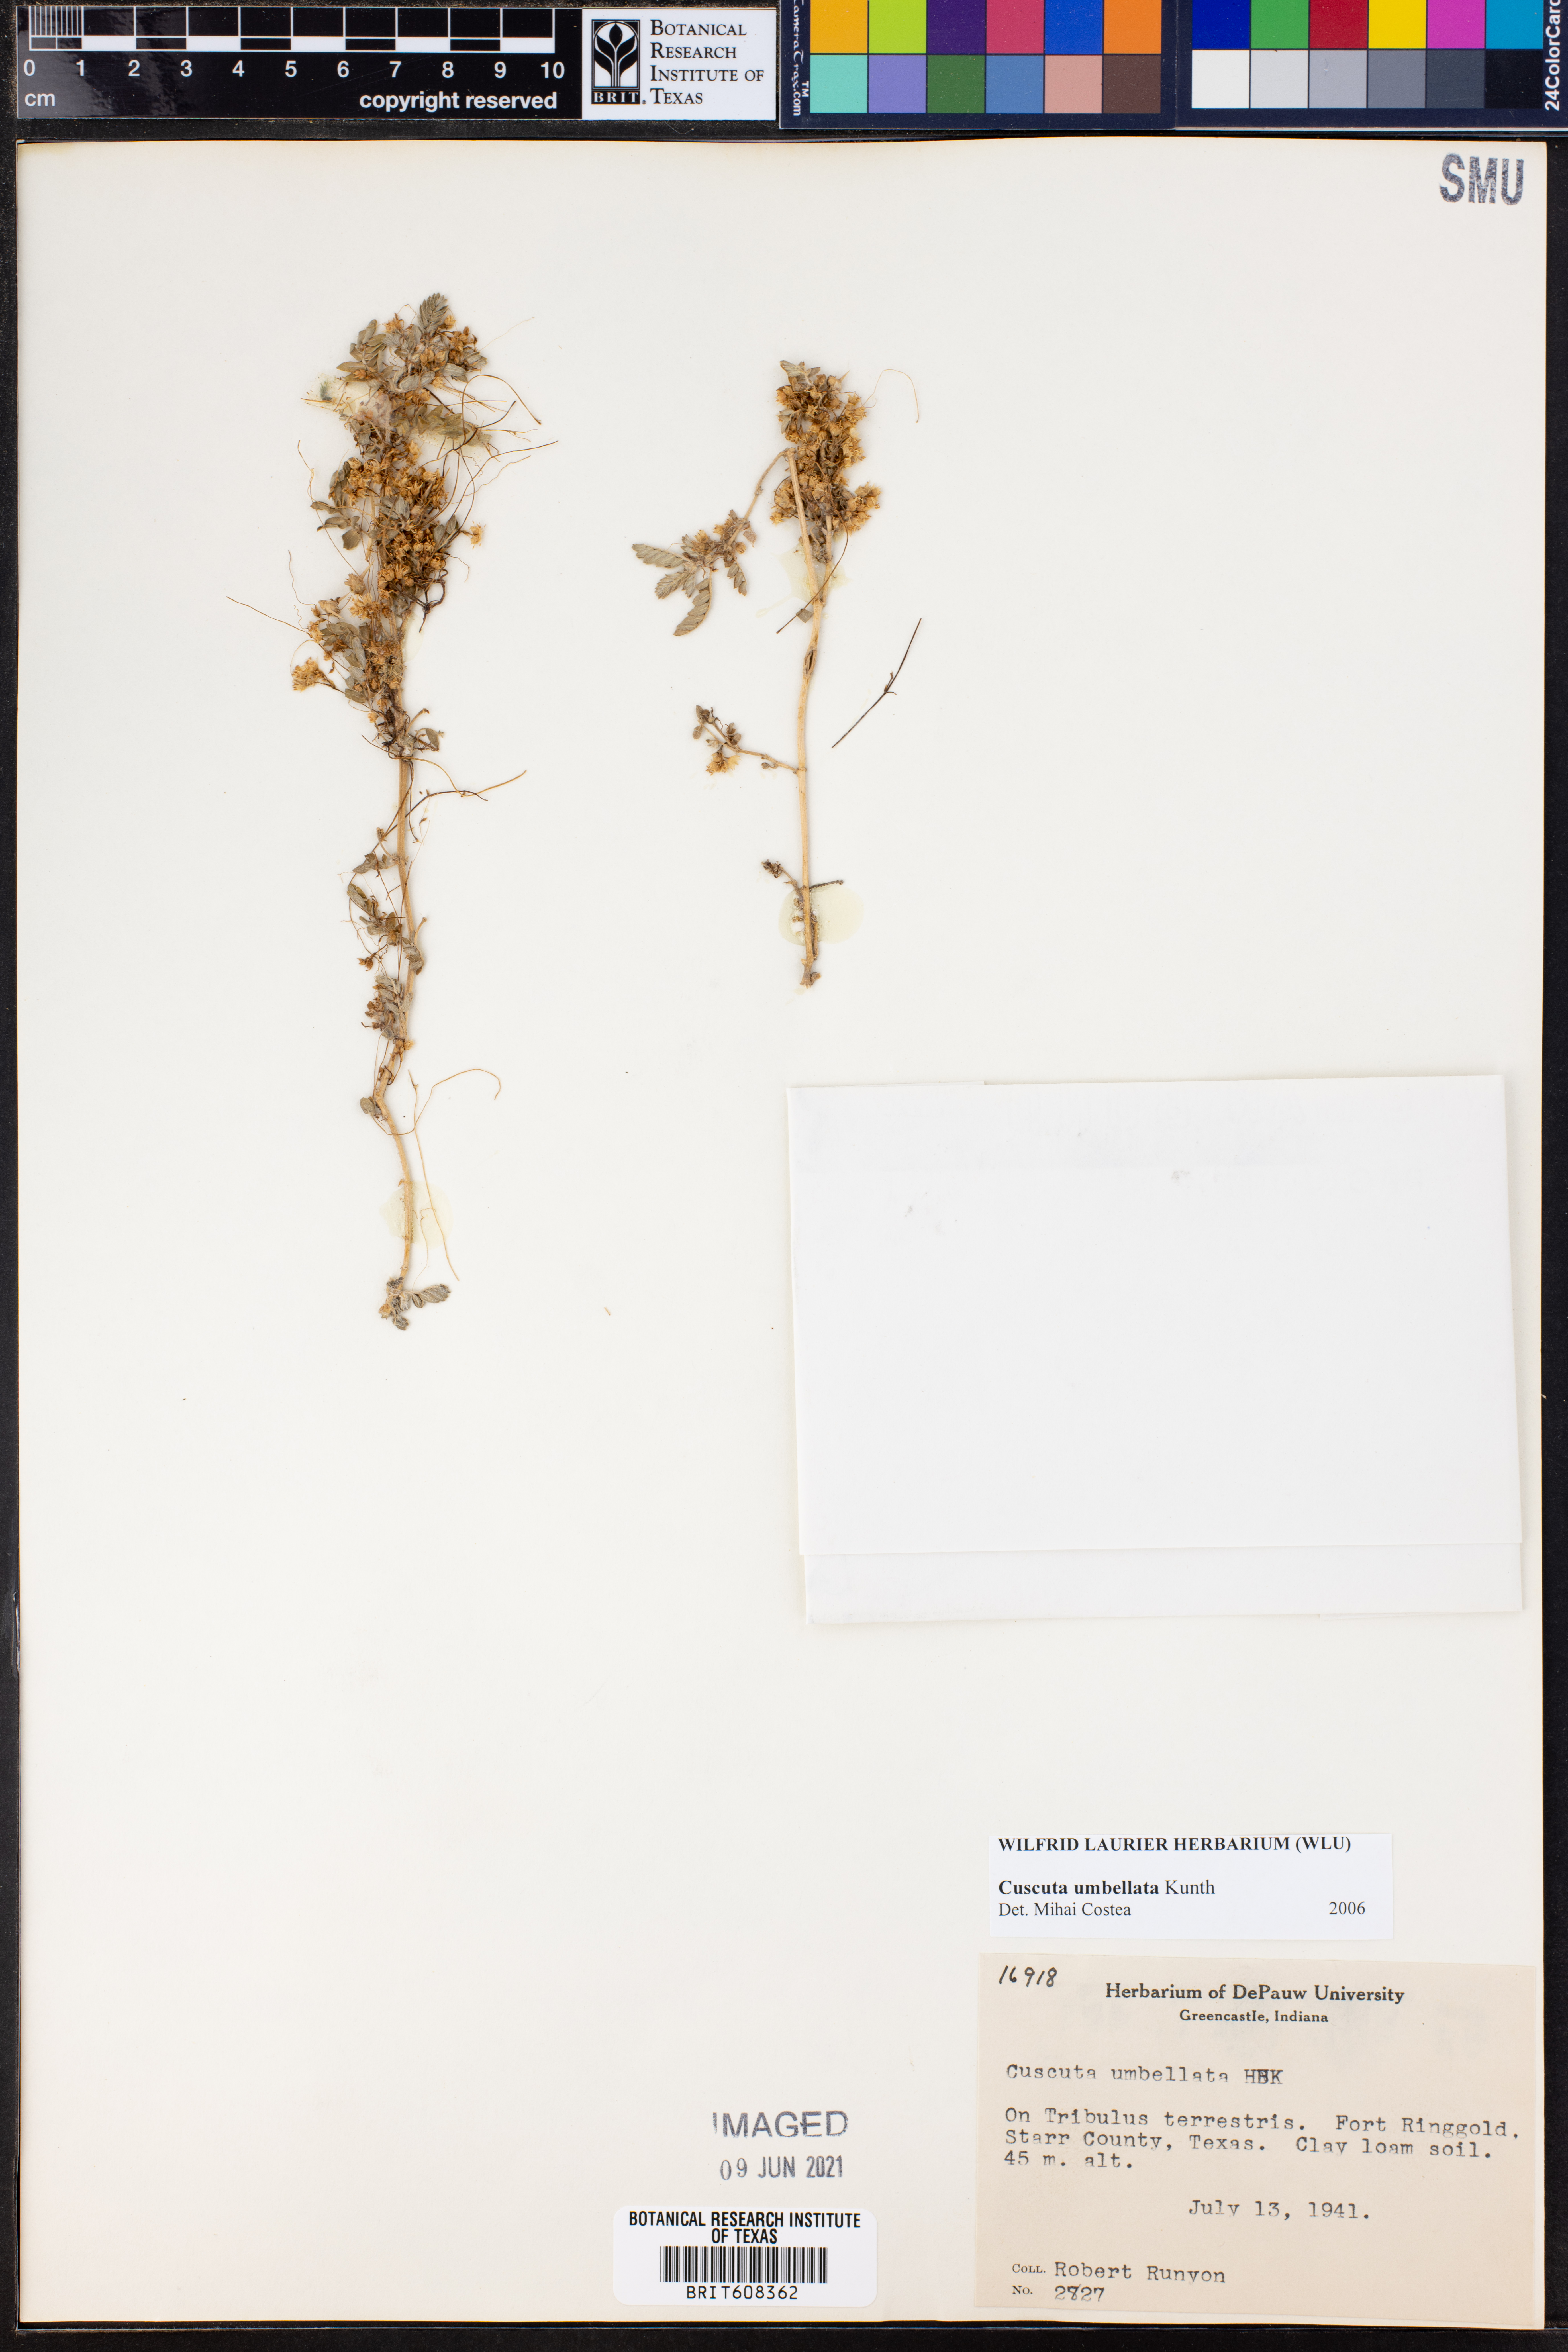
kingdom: Plantae
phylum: Tracheophyta
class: Magnoliopsida
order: Solanales
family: Convolvulaceae
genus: Cuscuta
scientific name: Cuscuta umbellata
